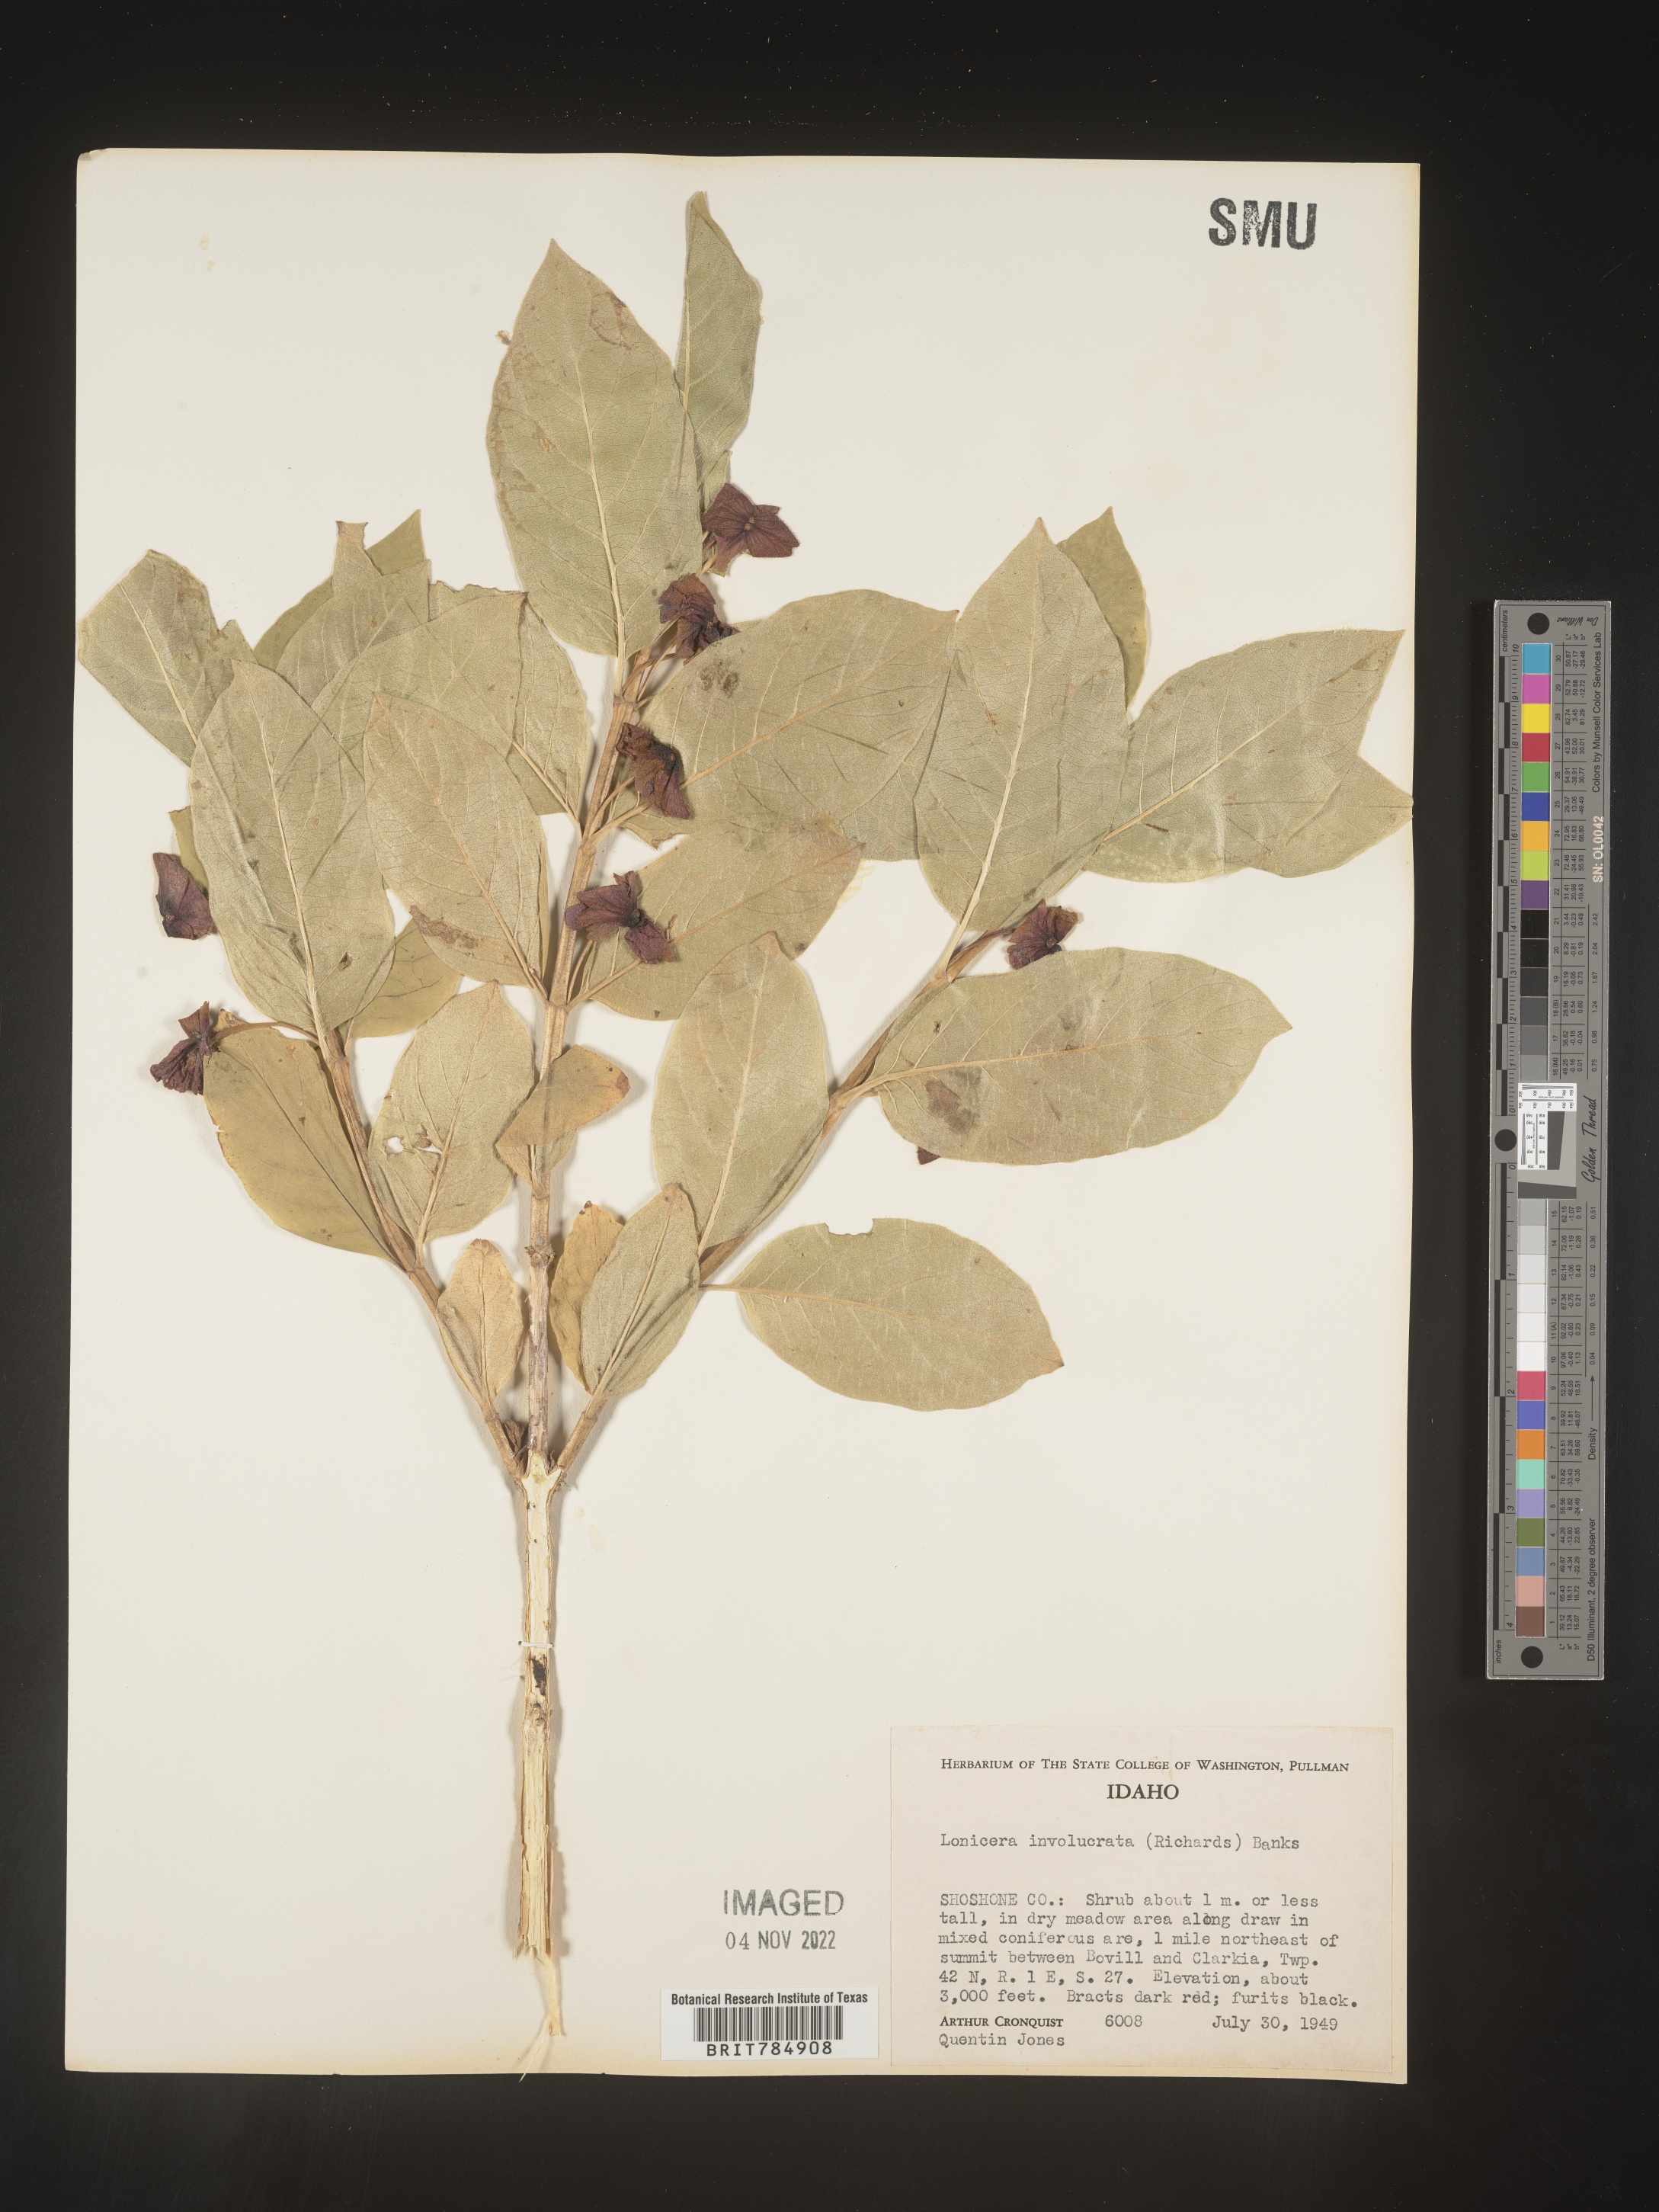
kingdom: Plantae
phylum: Tracheophyta
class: Magnoliopsida
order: Dipsacales
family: Caprifoliaceae
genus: Lonicera
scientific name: Lonicera involucrata
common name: Californian honeysuckle
